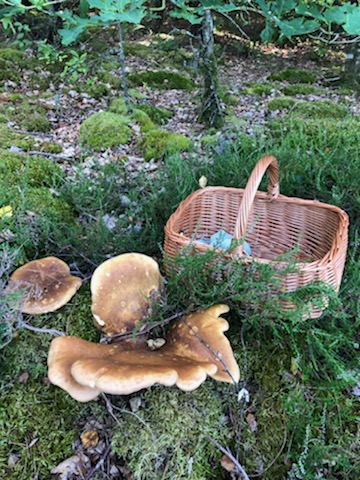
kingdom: Fungi
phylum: Basidiomycota
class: Agaricomycetes
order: Boletales
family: Tapinellaceae
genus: Tapinella
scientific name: Tapinella atrotomentosa
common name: sortfiltet viftesvamp
